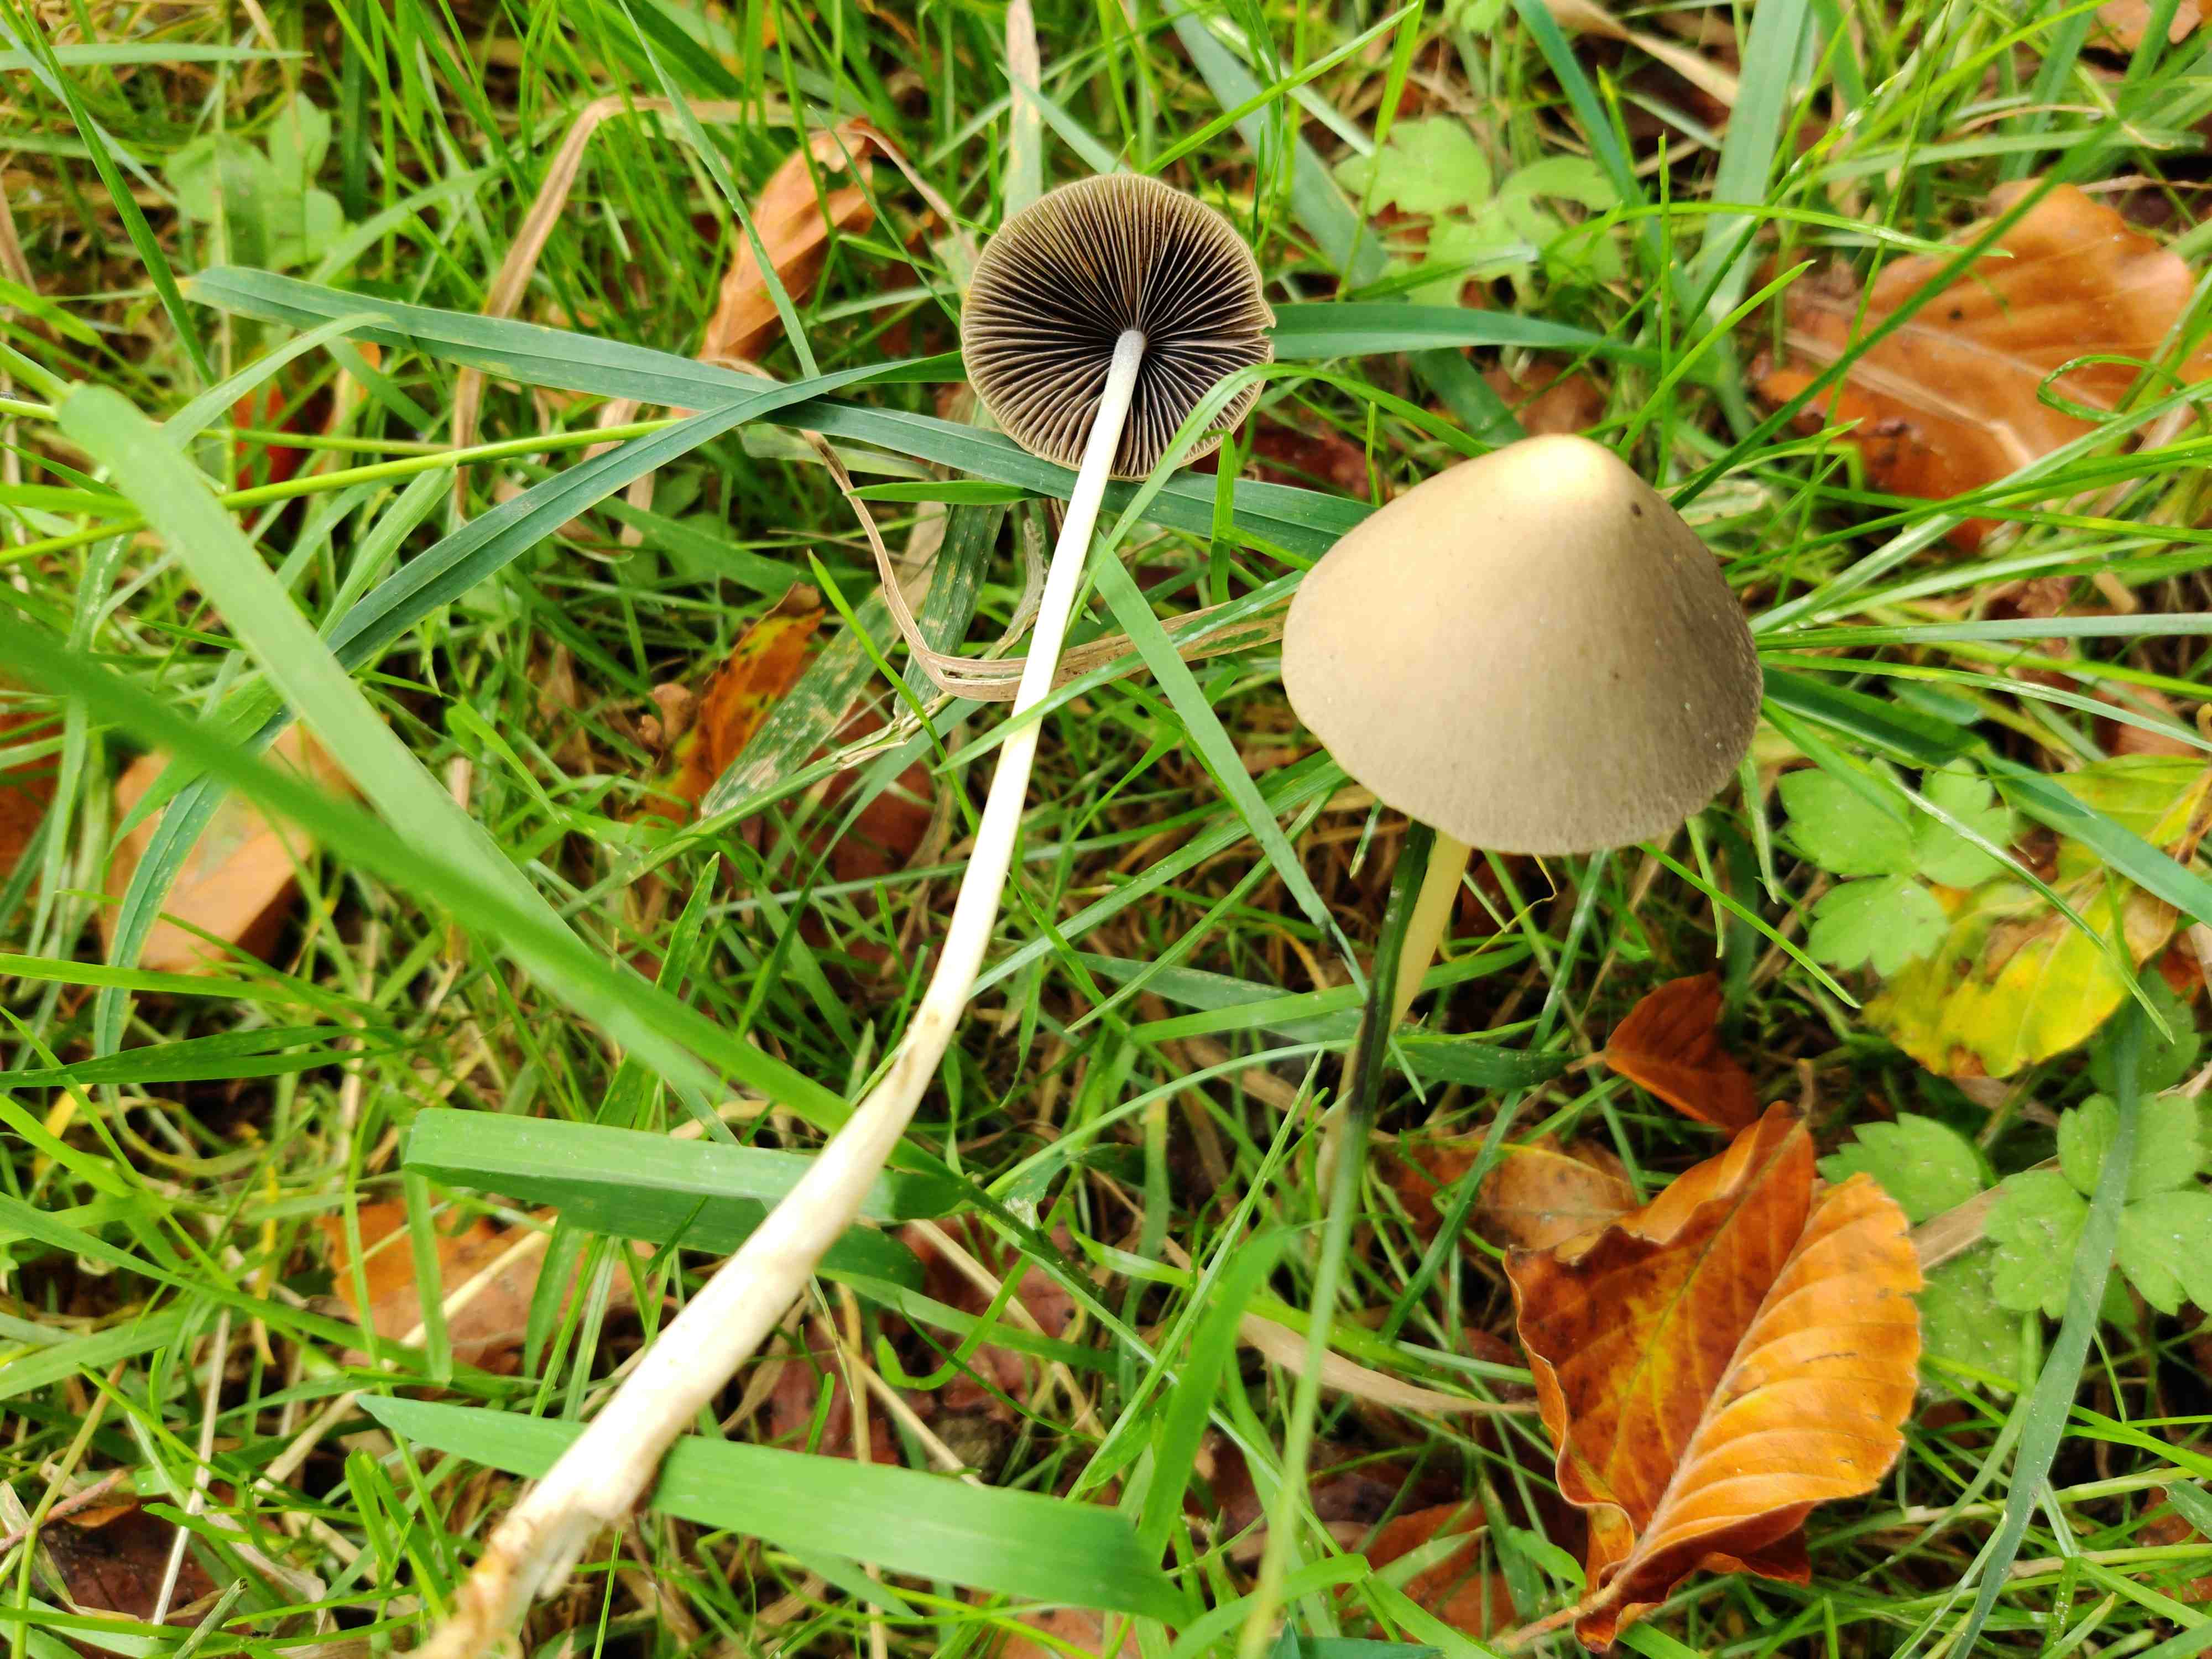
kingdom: Fungi
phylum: Basidiomycota
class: Agaricomycetes
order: Agaricales
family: Psathyrellaceae
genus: Parasola
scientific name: Parasola conopilea
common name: kegle-hjulhat
